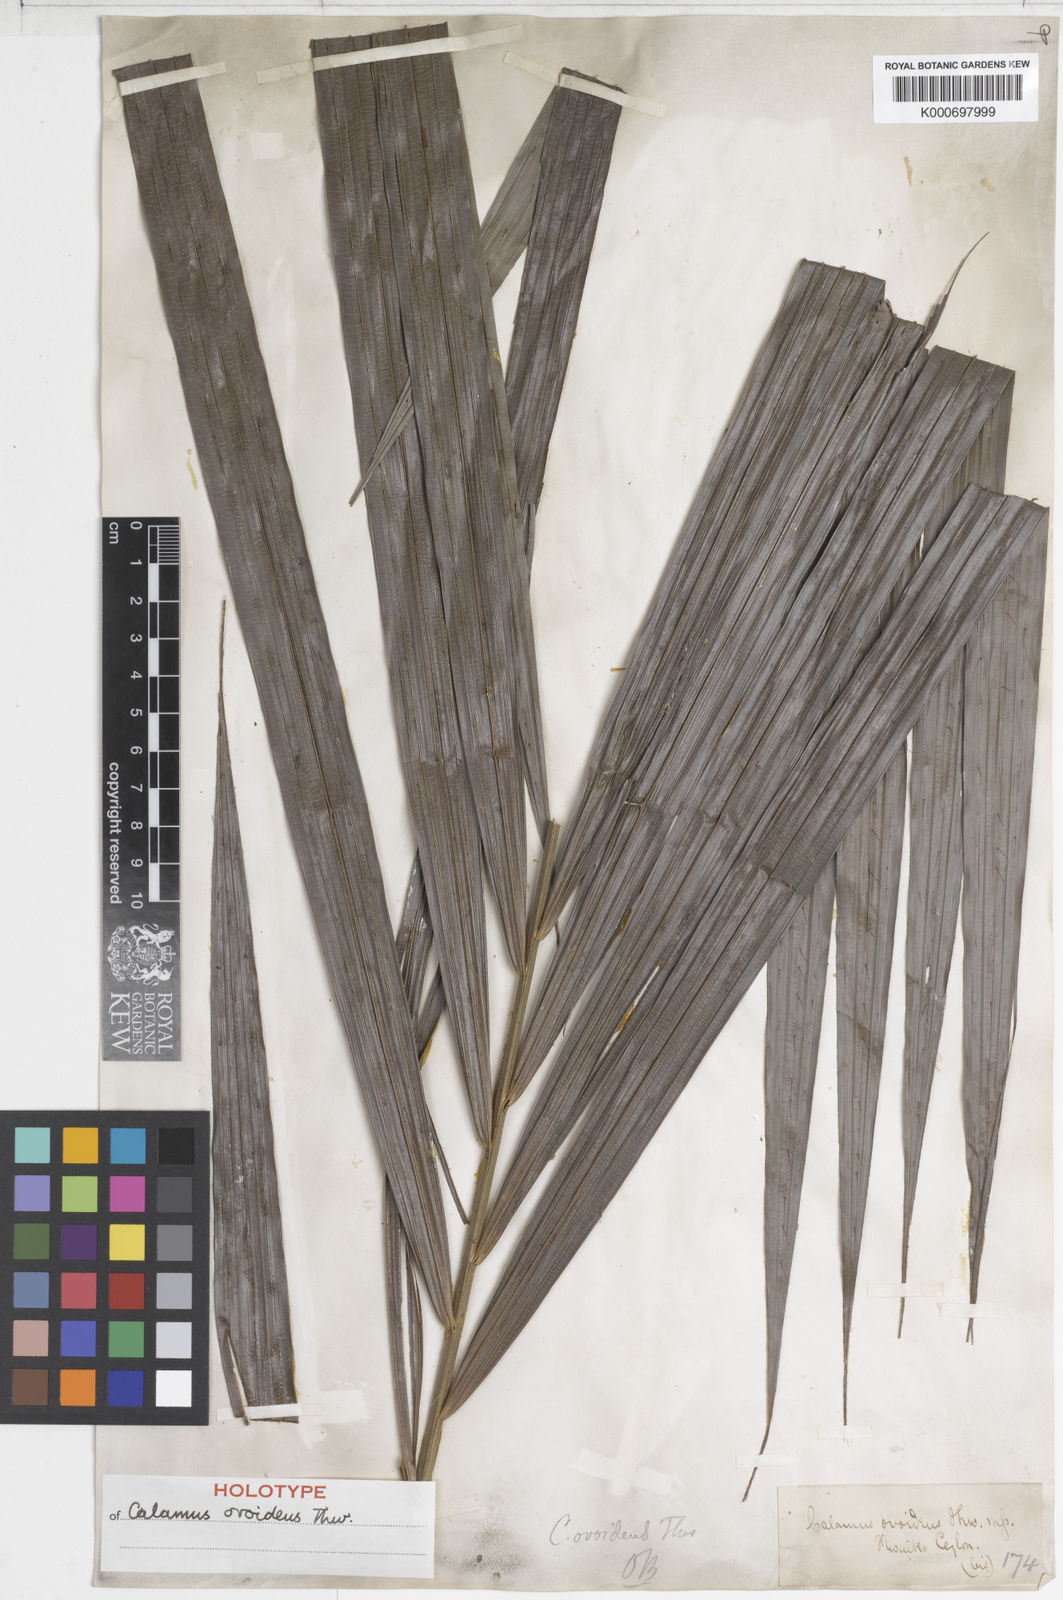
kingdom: Plantae
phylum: Tracheophyta
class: Liliopsida
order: Arecales
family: Arecaceae
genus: Calamus
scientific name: Calamus ovoideus
